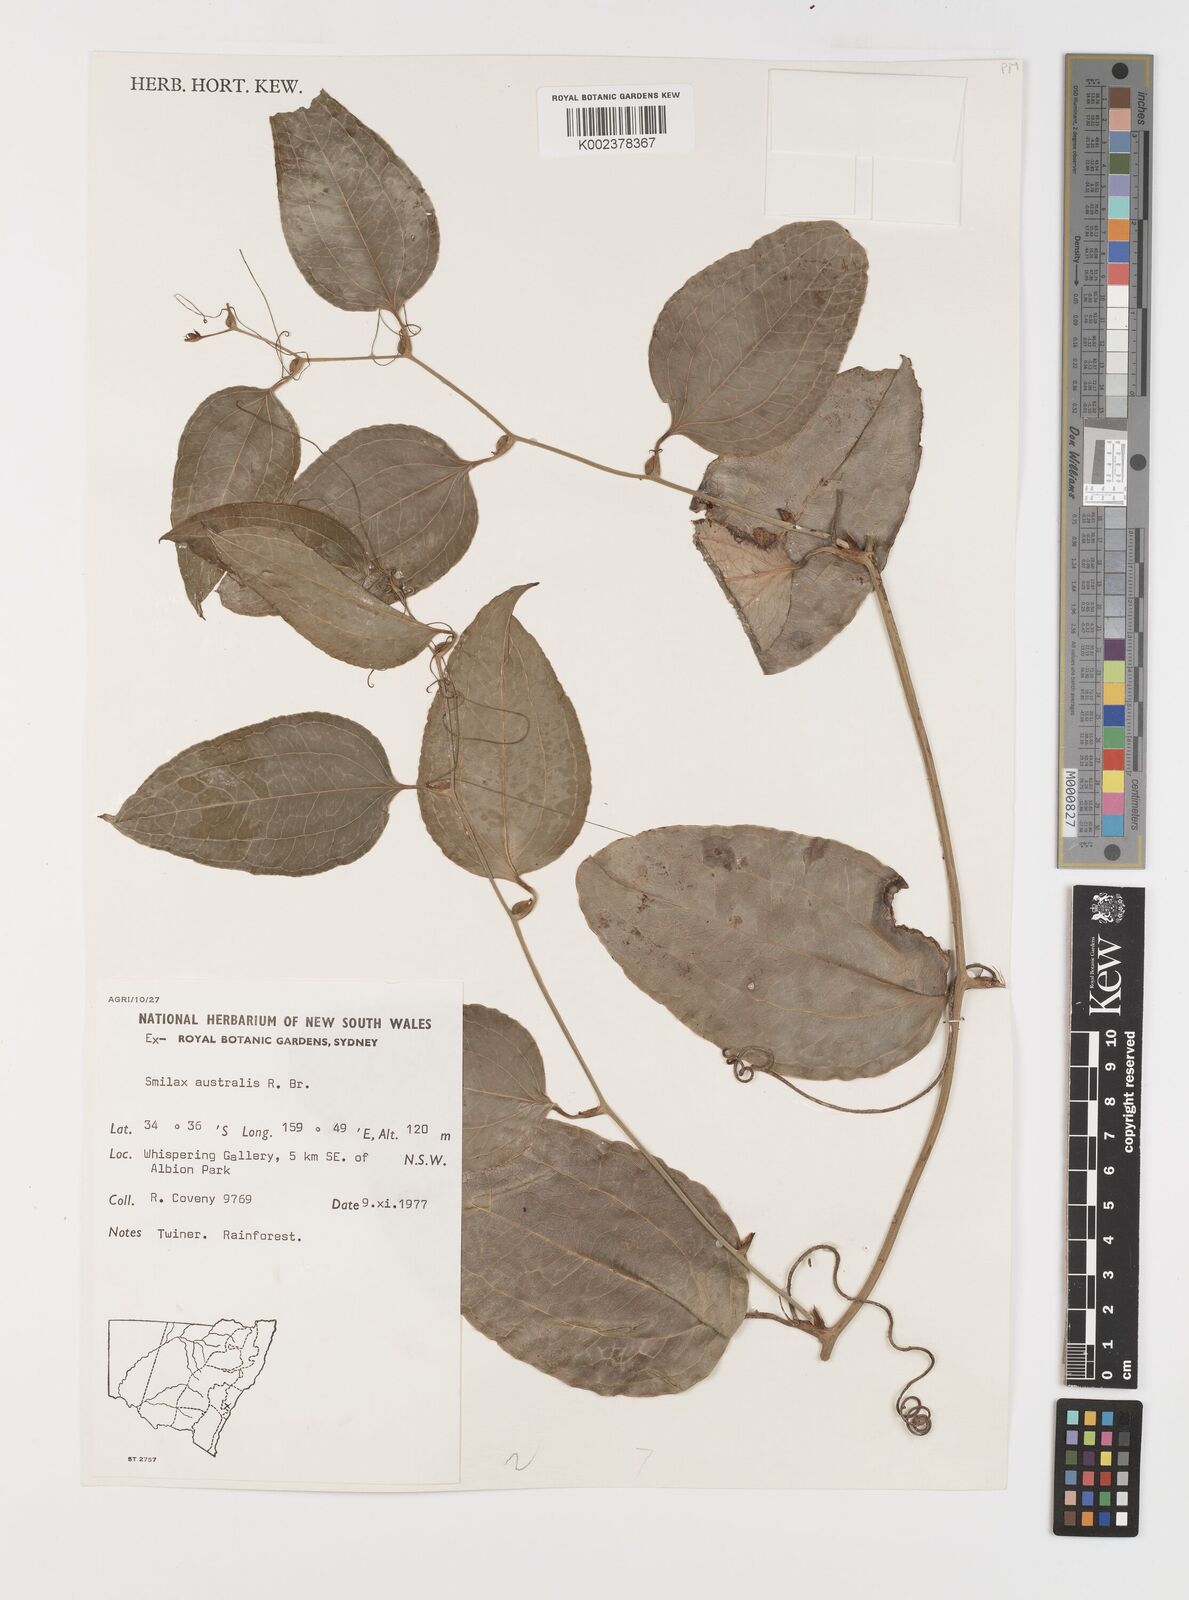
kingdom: Plantae
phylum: Tracheophyta
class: Liliopsida
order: Liliales
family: Smilacaceae
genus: Smilax
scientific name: Smilax australis
